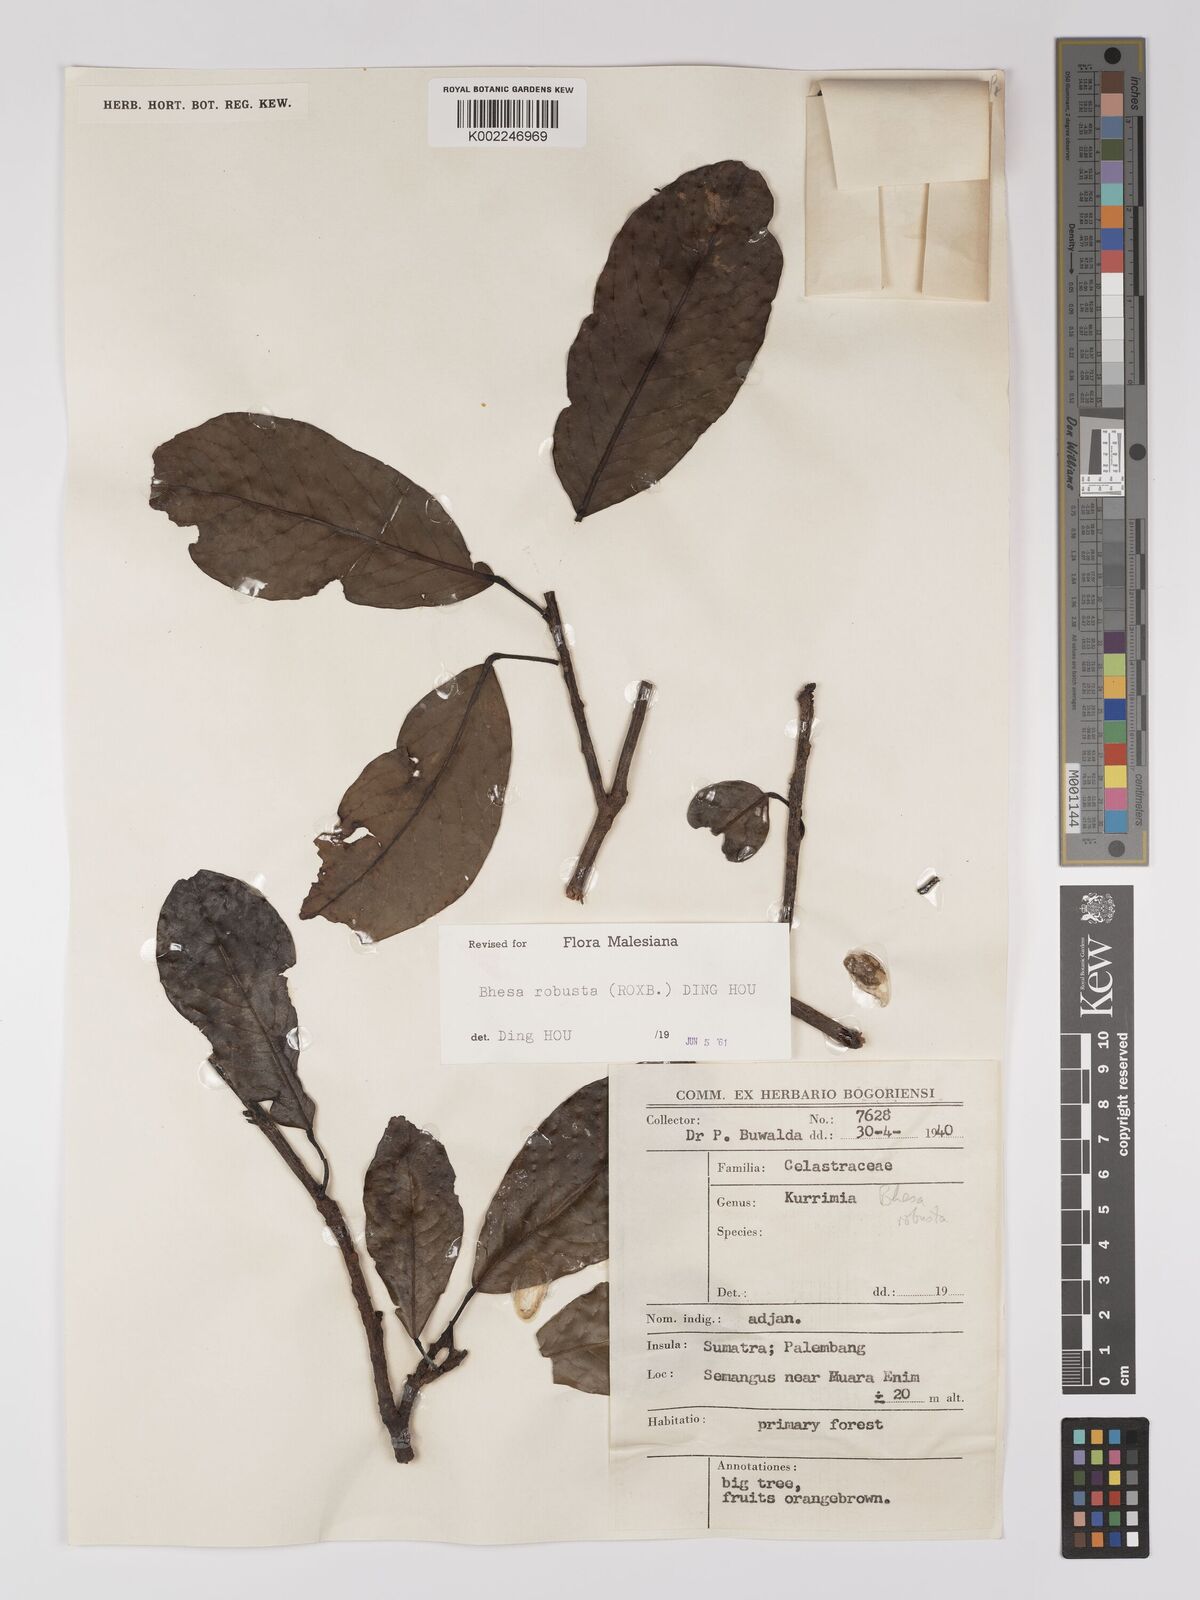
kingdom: Plantae
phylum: Tracheophyta
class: Magnoliopsida
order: Malpighiales
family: Centroplacaceae
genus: Bhesa
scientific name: Bhesa robusta
